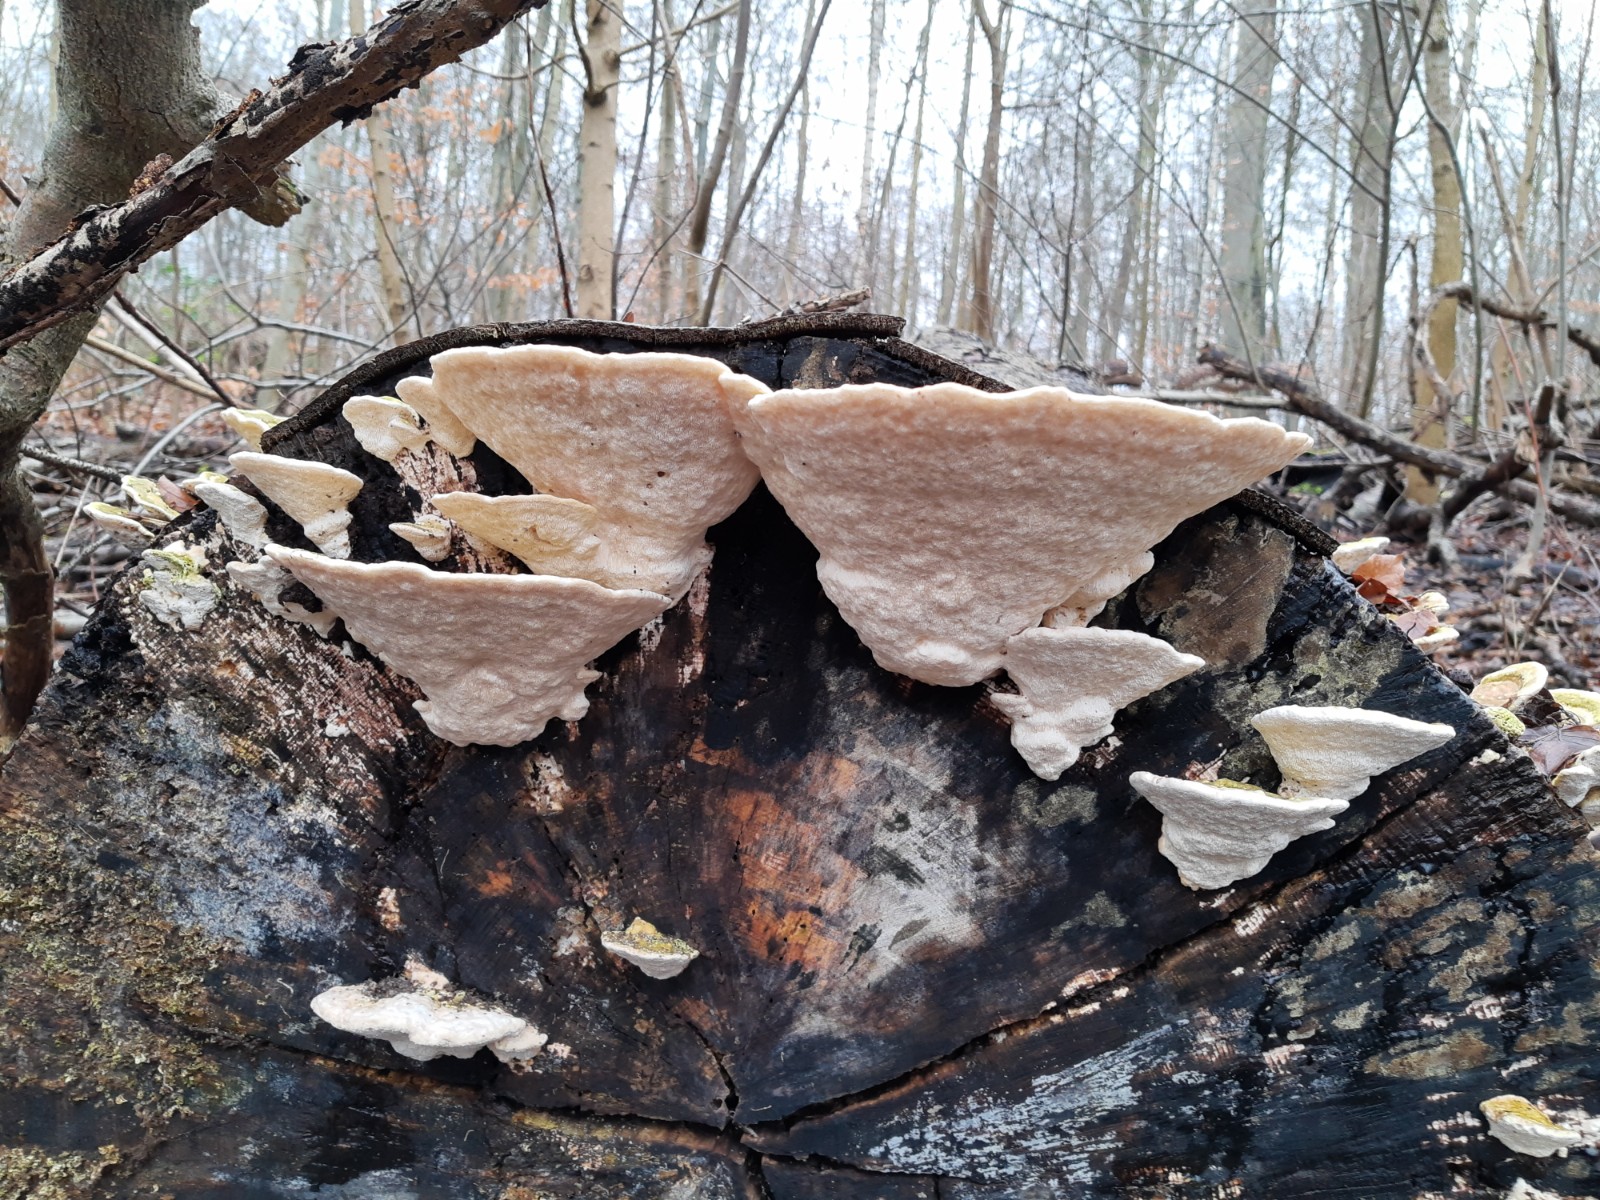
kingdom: Fungi
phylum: Basidiomycota
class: Agaricomycetes
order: Polyporales
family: Polyporaceae
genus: Trametes
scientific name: Trametes gibbosa
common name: puklet læderporesvamp
